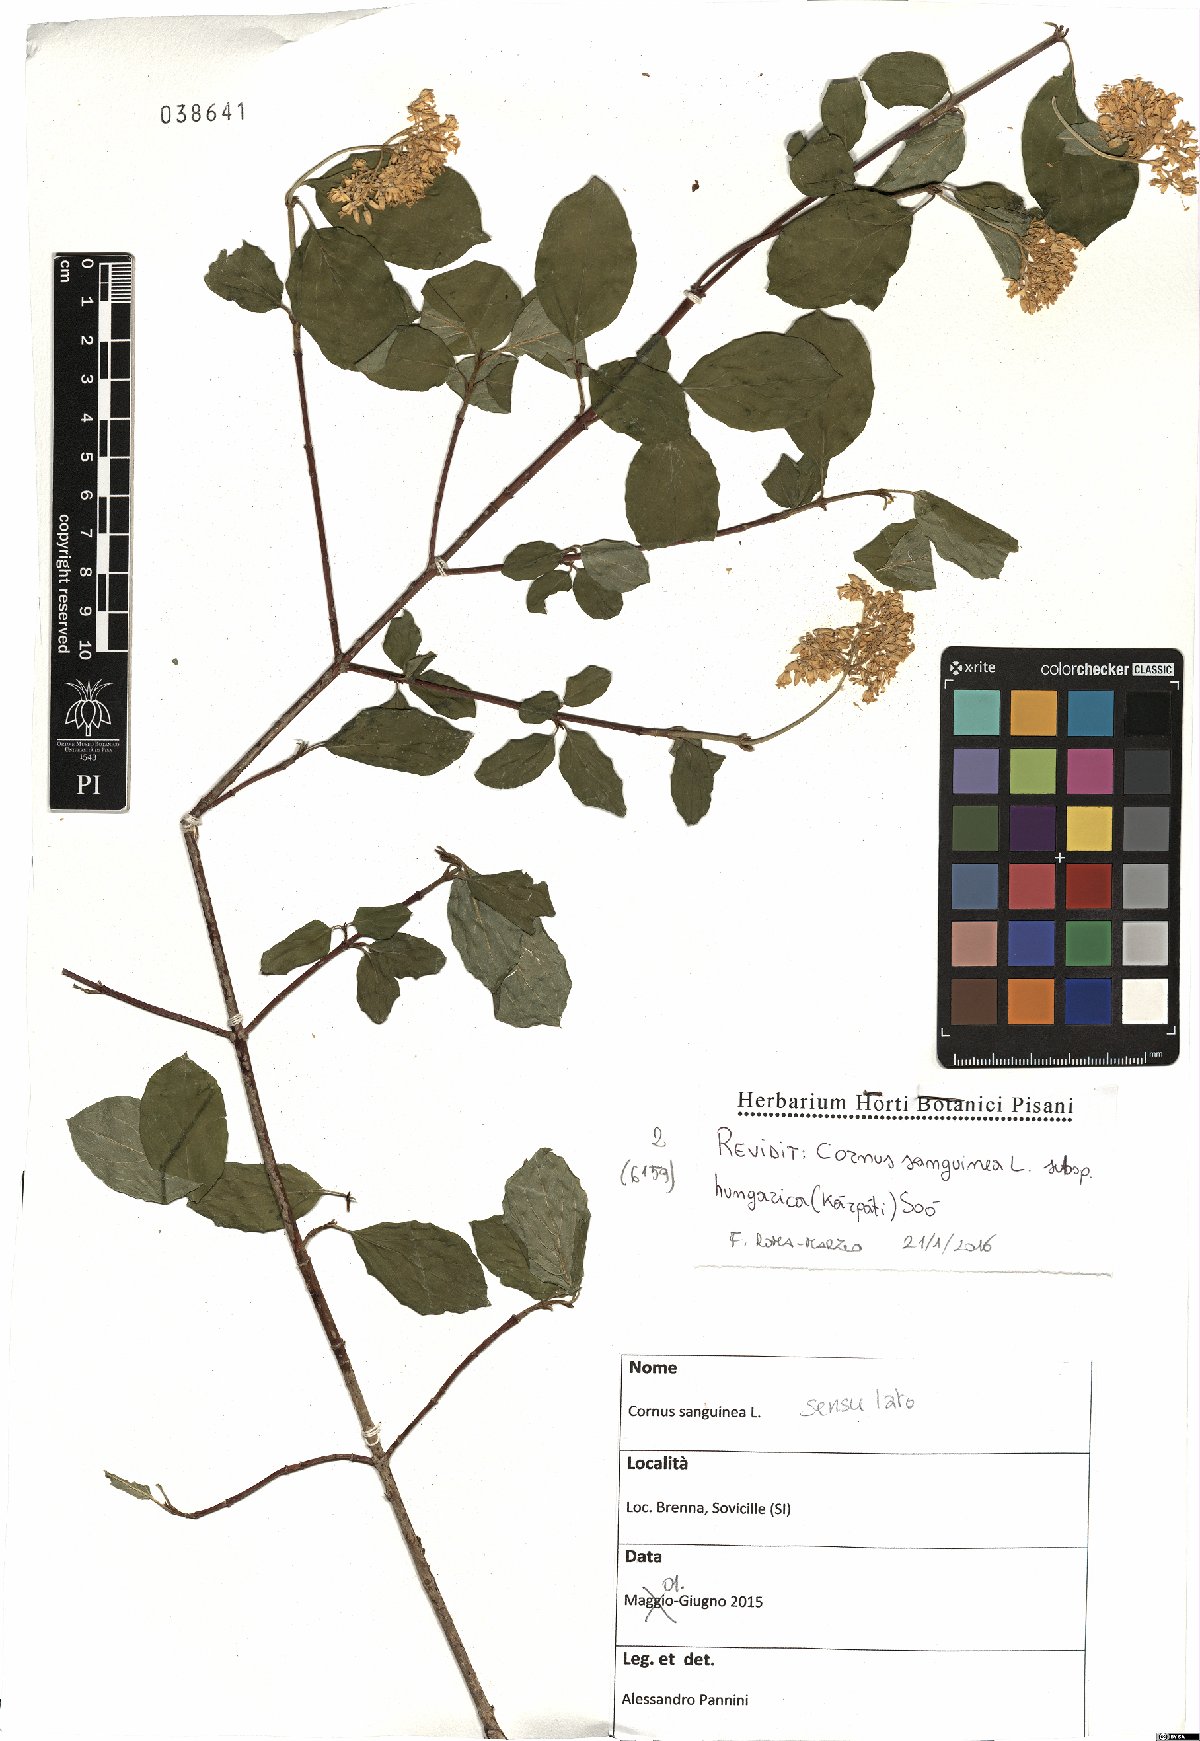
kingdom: Plantae
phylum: Tracheophyta
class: Magnoliopsida
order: Cornales
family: Cornaceae
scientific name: Cornaceae
